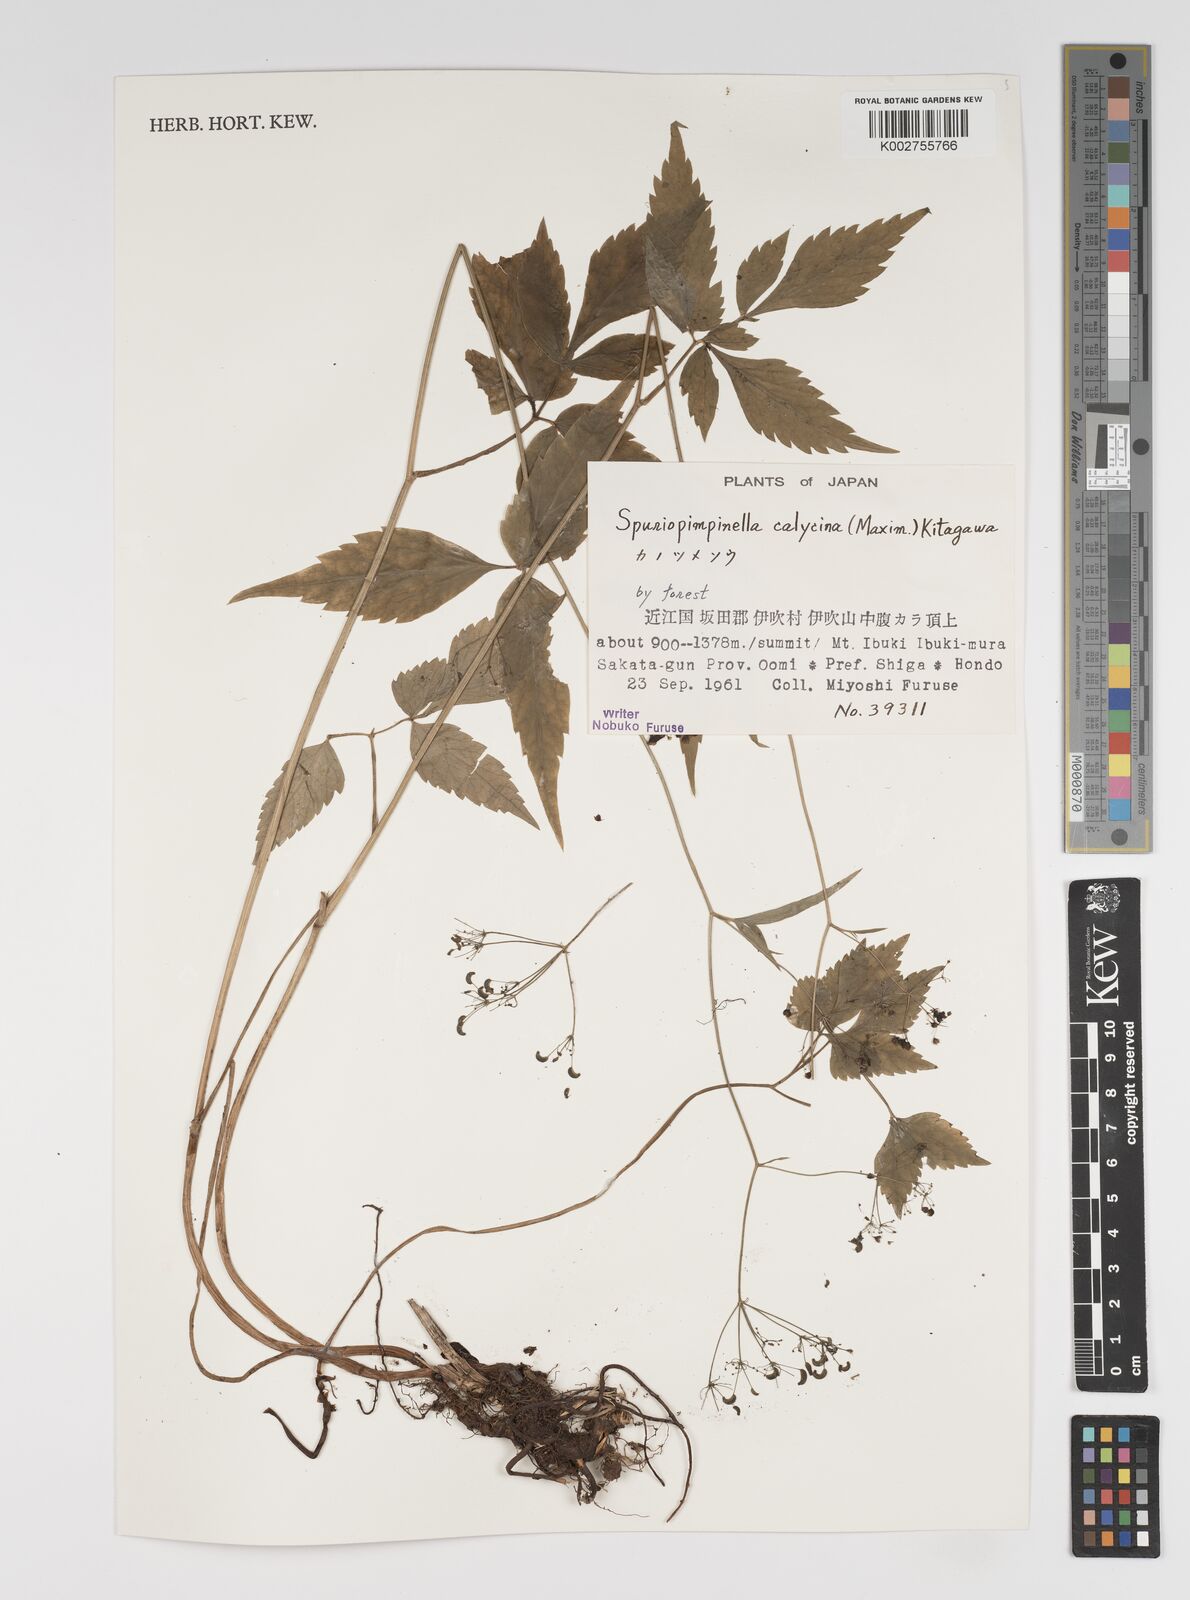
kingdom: Plantae
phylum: Tracheophyta
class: Magnoliopsida
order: Apiales
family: Apiaceae
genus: Spuriopimpinella
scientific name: Spuriopimpinella calycina
